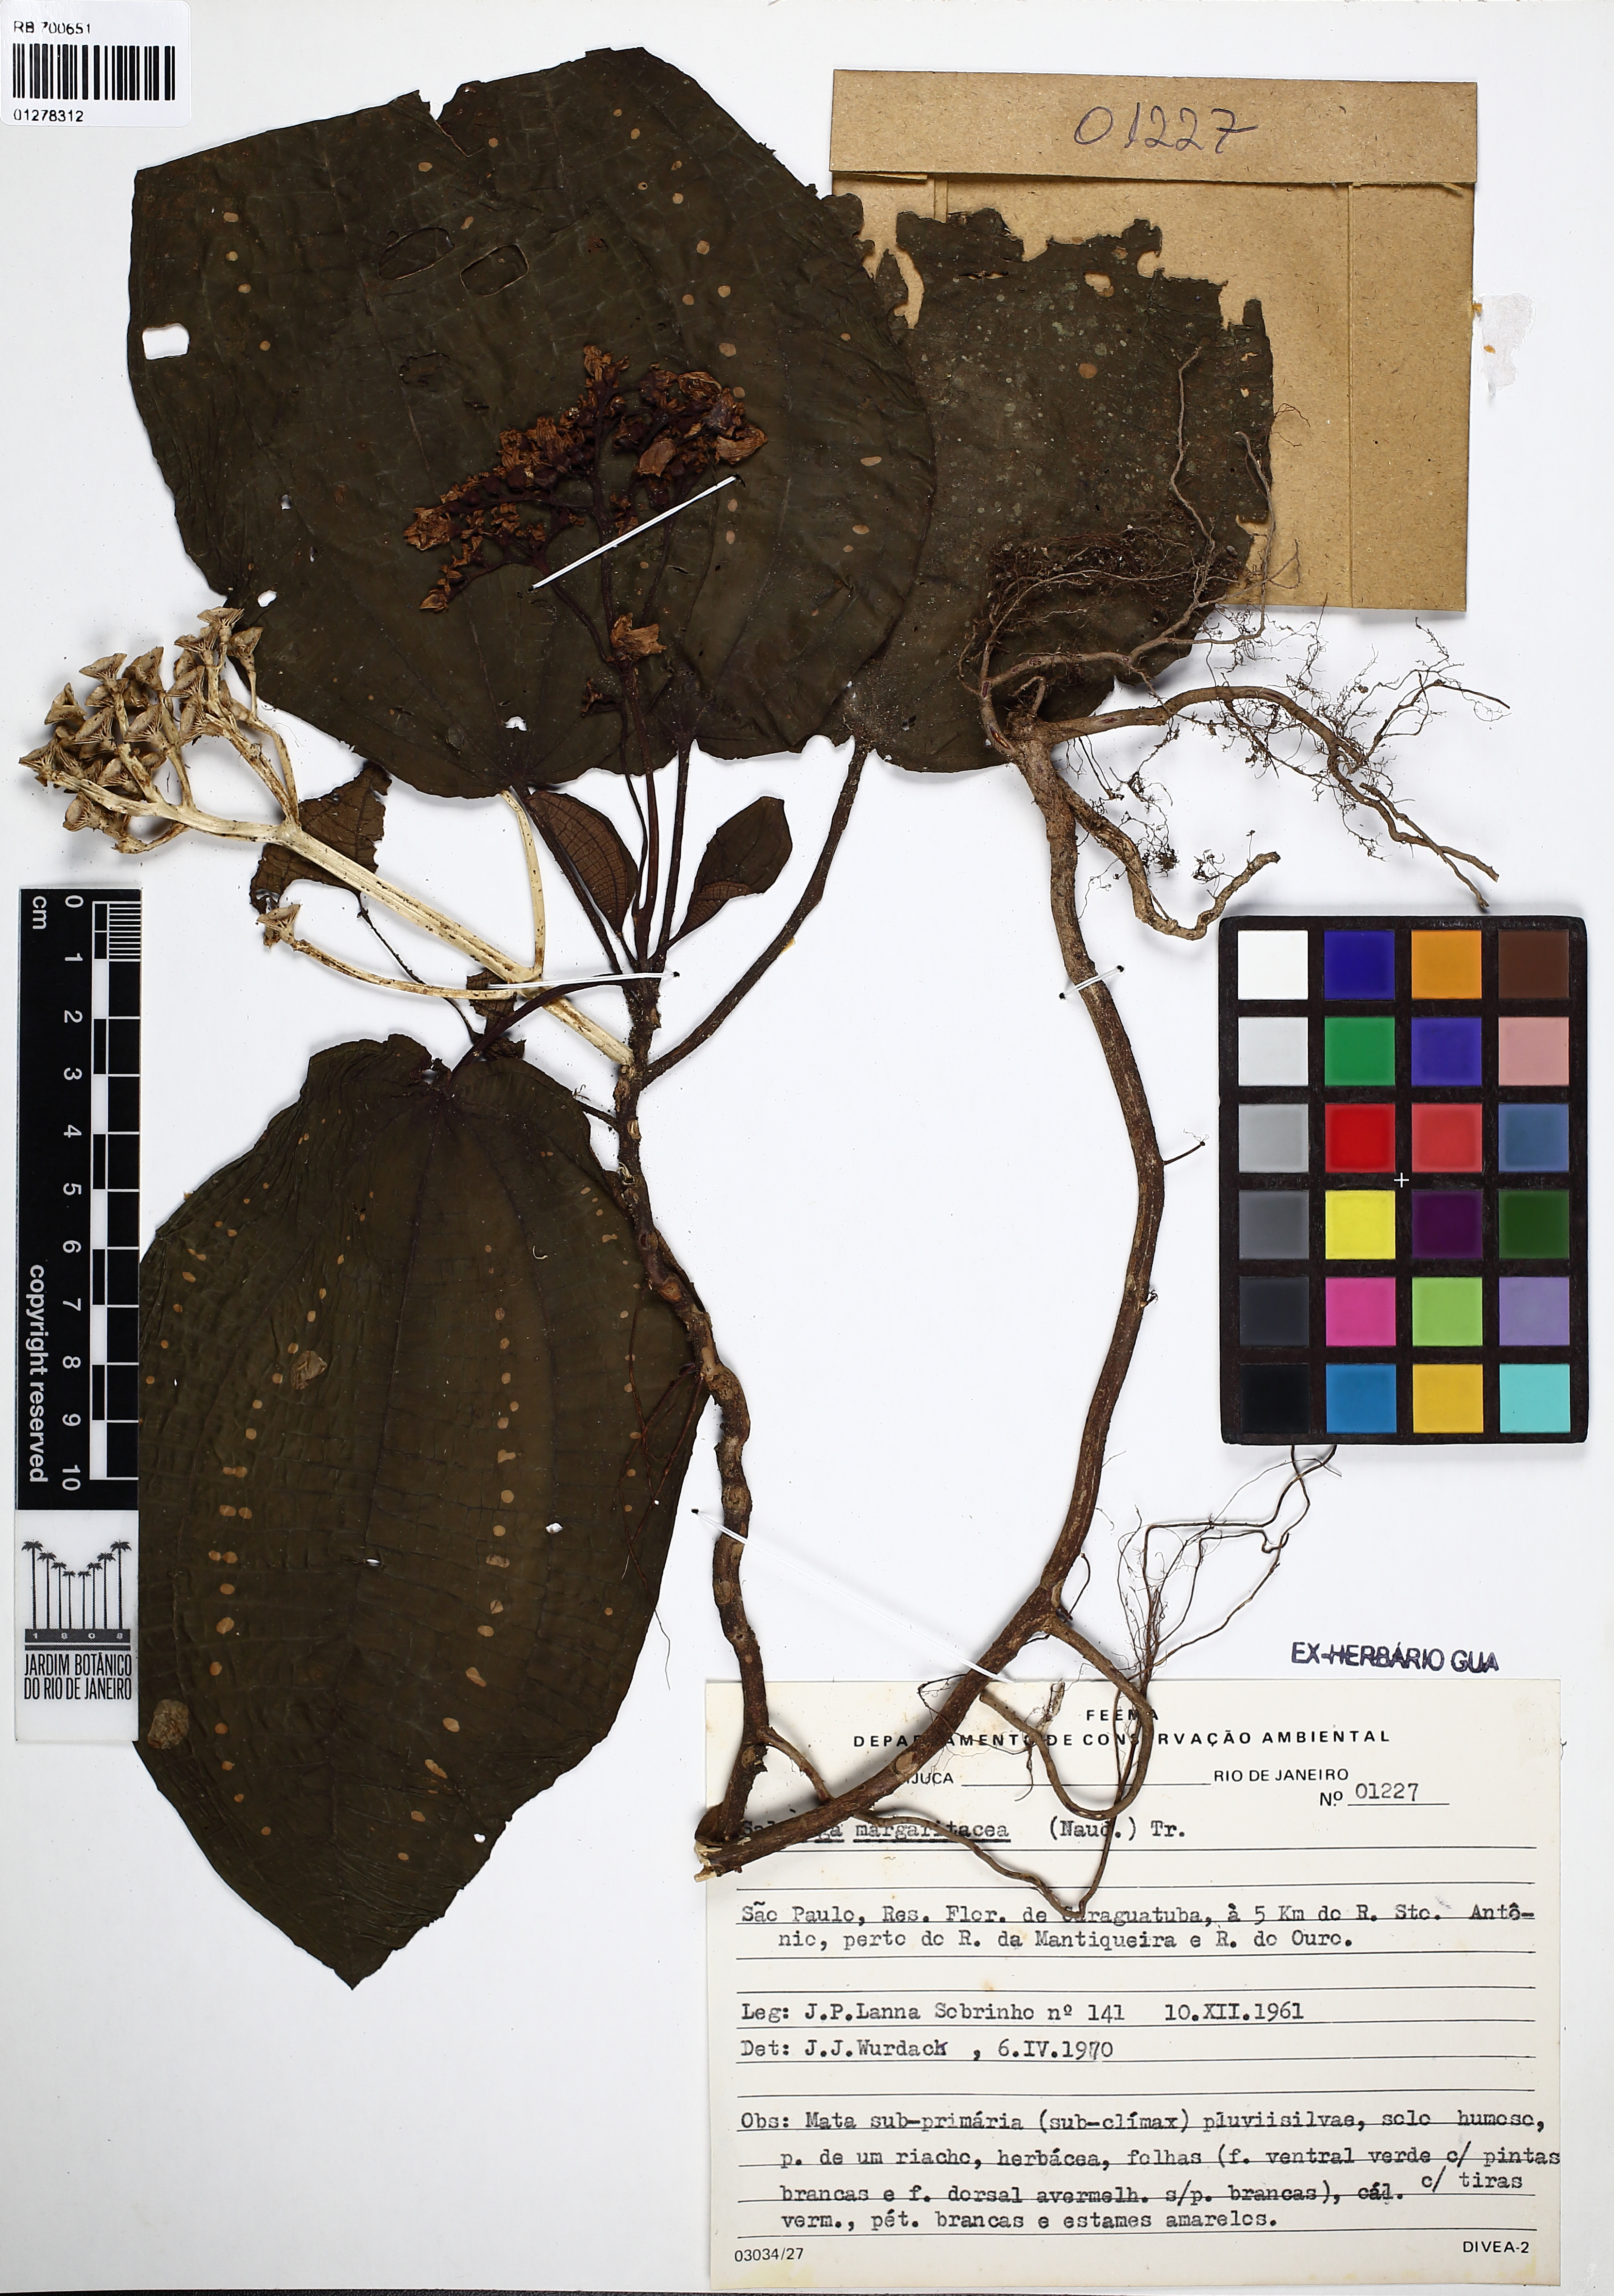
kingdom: Plantae
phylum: Tracheophyta
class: Magnoliopsida
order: Myrtales
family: Melastomataceae
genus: Salpinga
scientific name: Salpinga margaritacea
